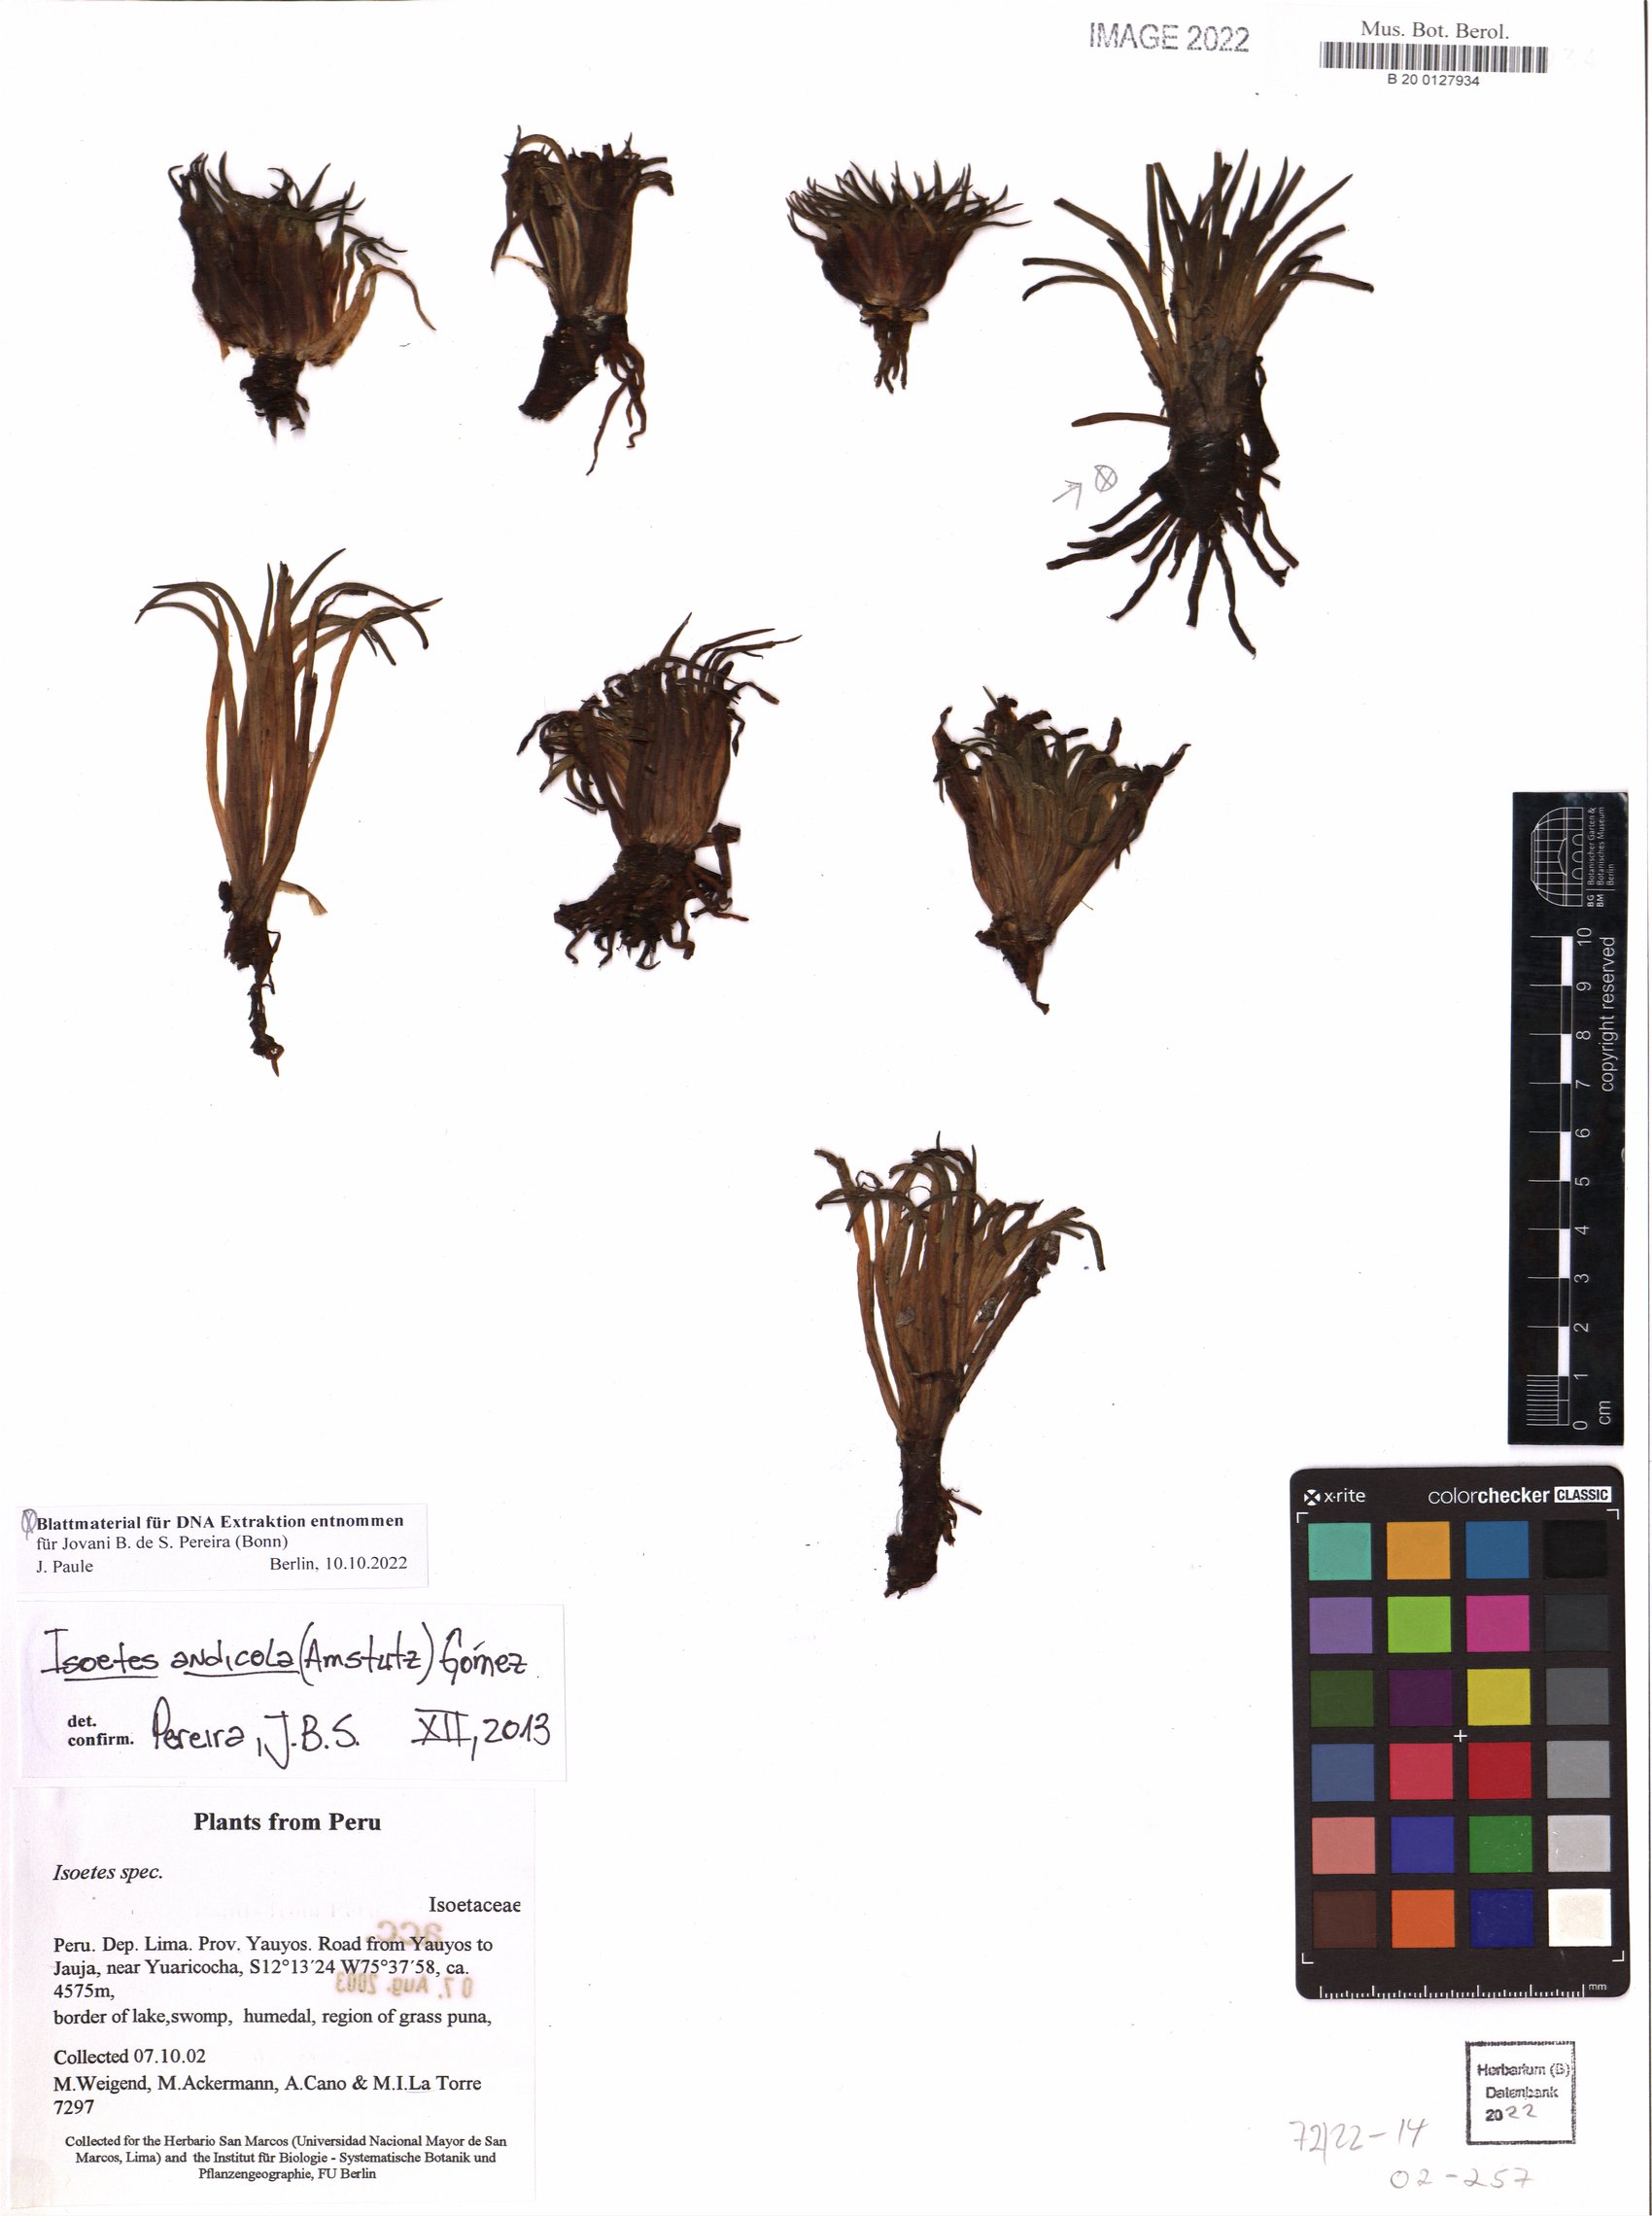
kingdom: Plantae
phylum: Tracheophyta
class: Lycopodiopsida
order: Isoetales
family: Isoetaceae
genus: Isoetes
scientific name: Isoetes andicola
